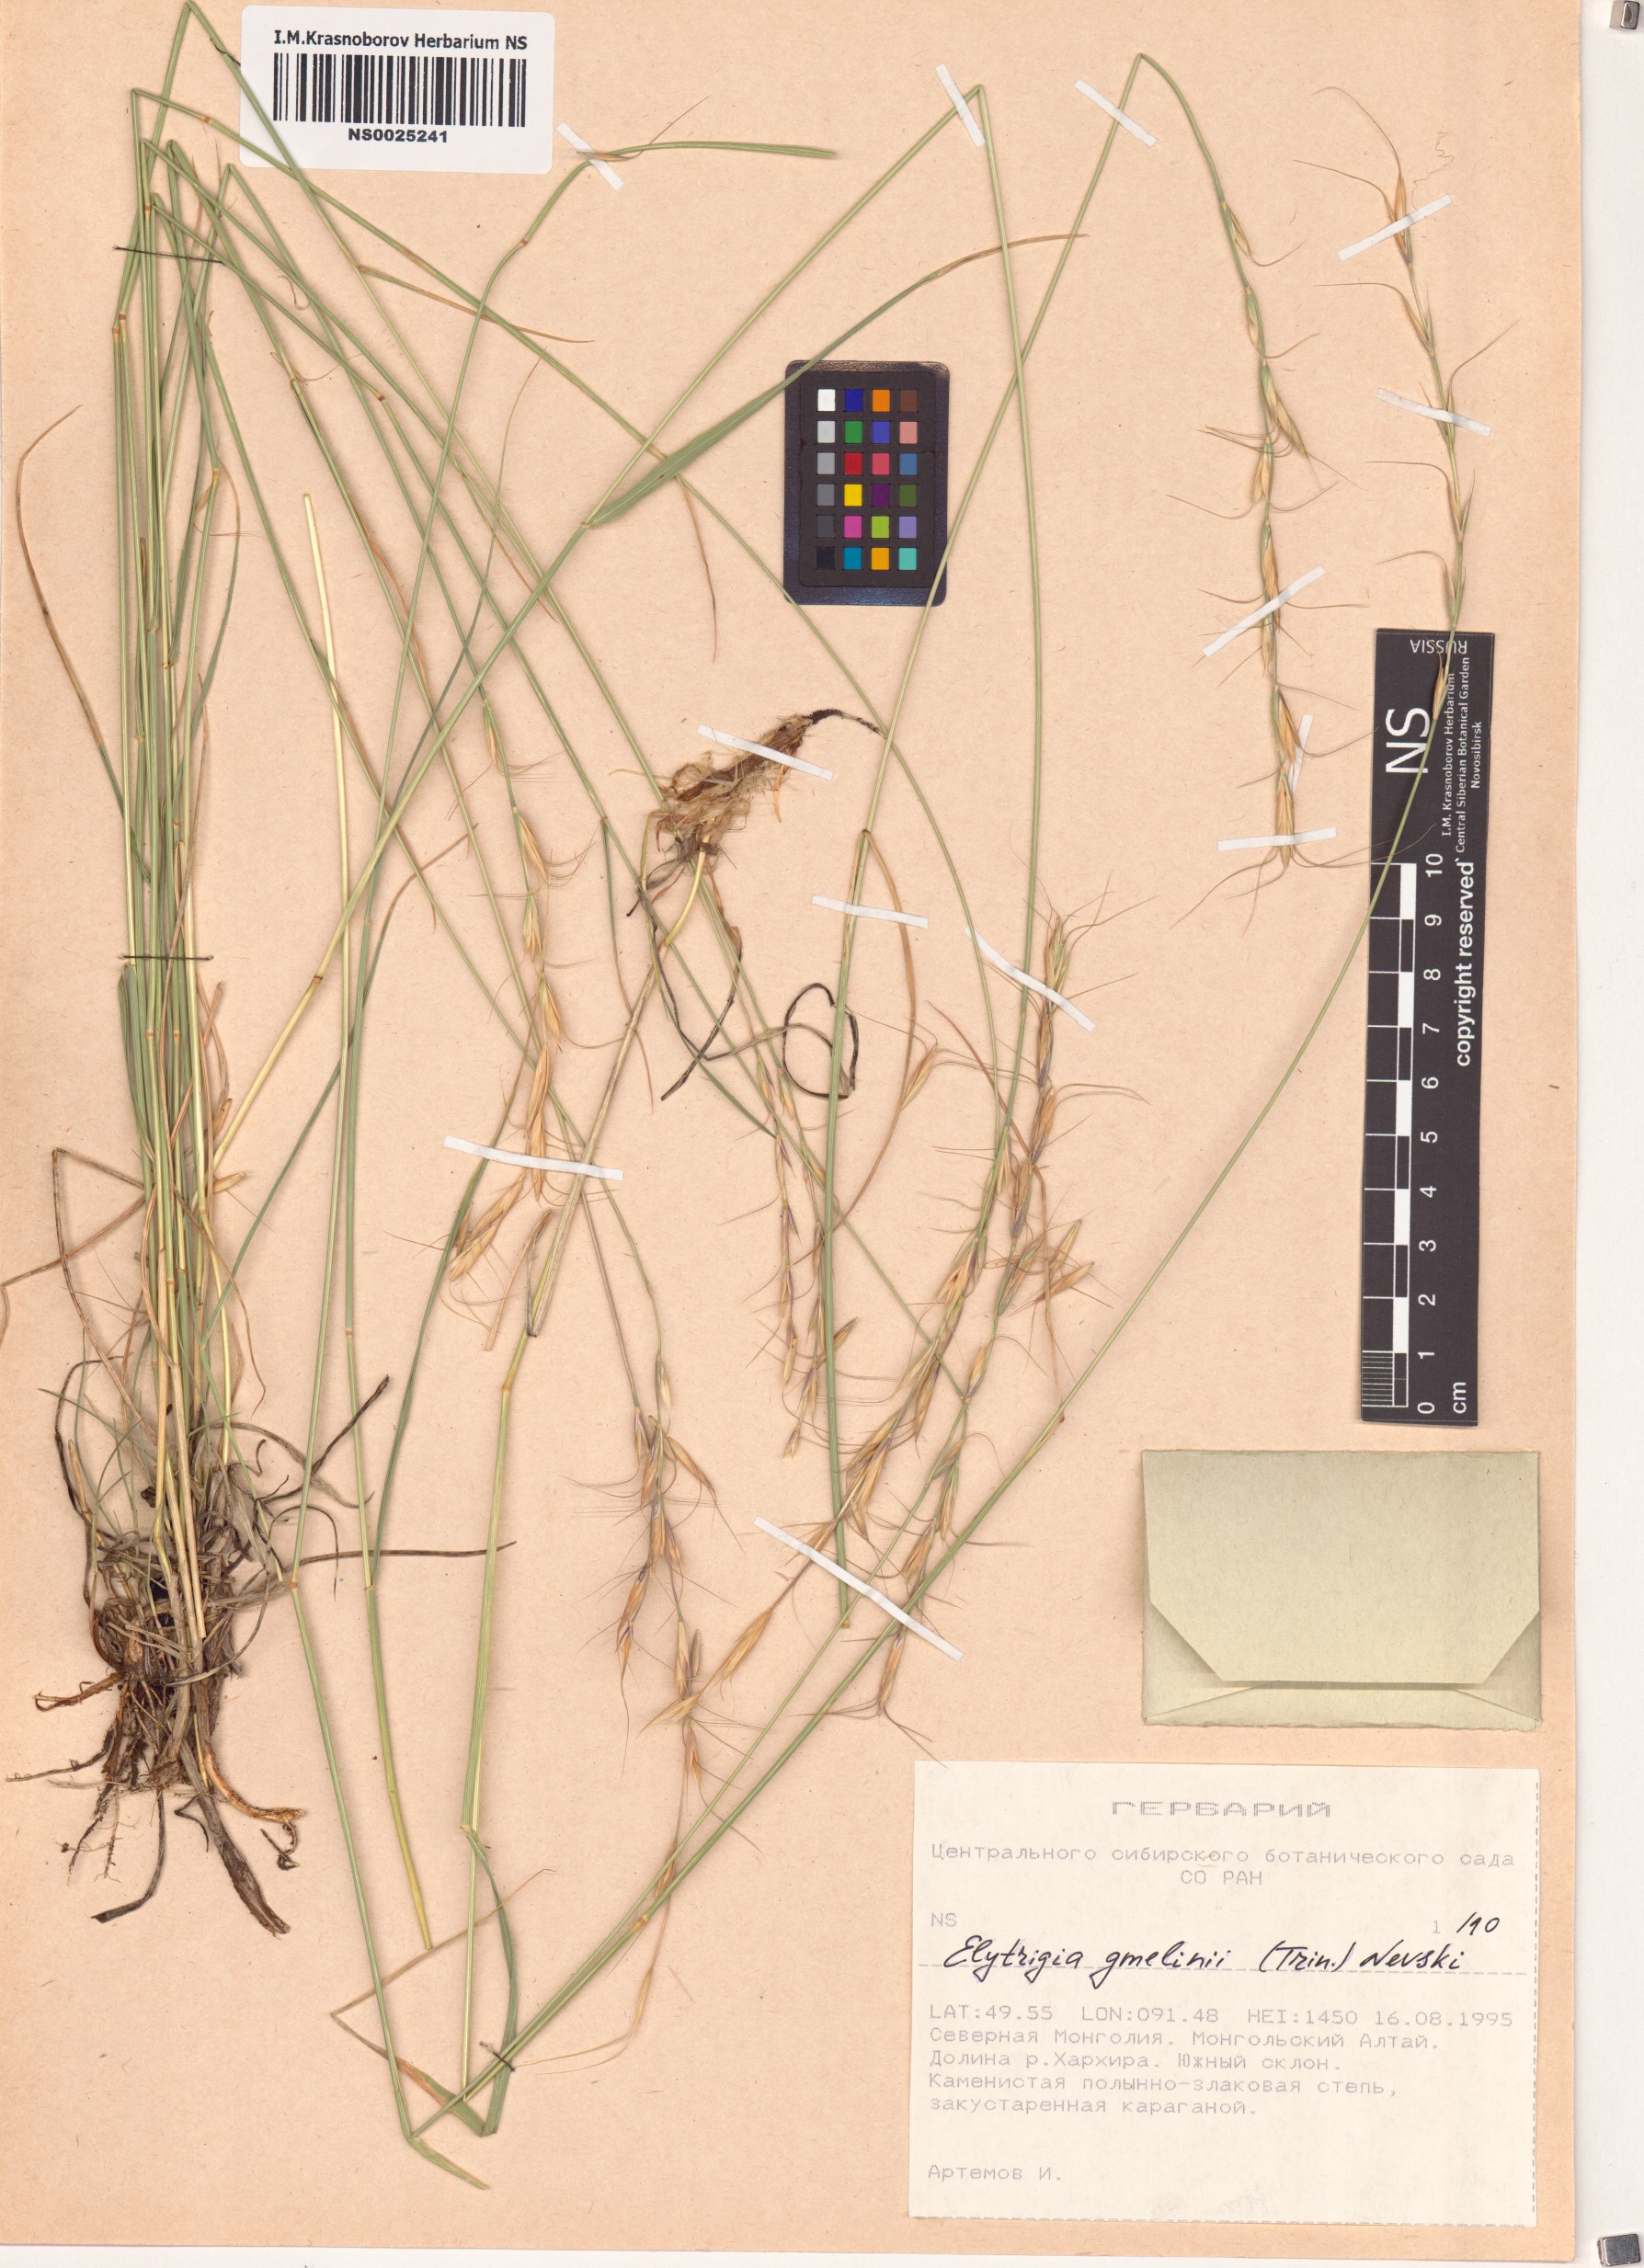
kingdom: Plantae
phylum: Tracheophyta
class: Liliopsida
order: Poales
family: Poaceae
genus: Pseudoroegneria
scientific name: Pseudoroegneria reflexiaristata
